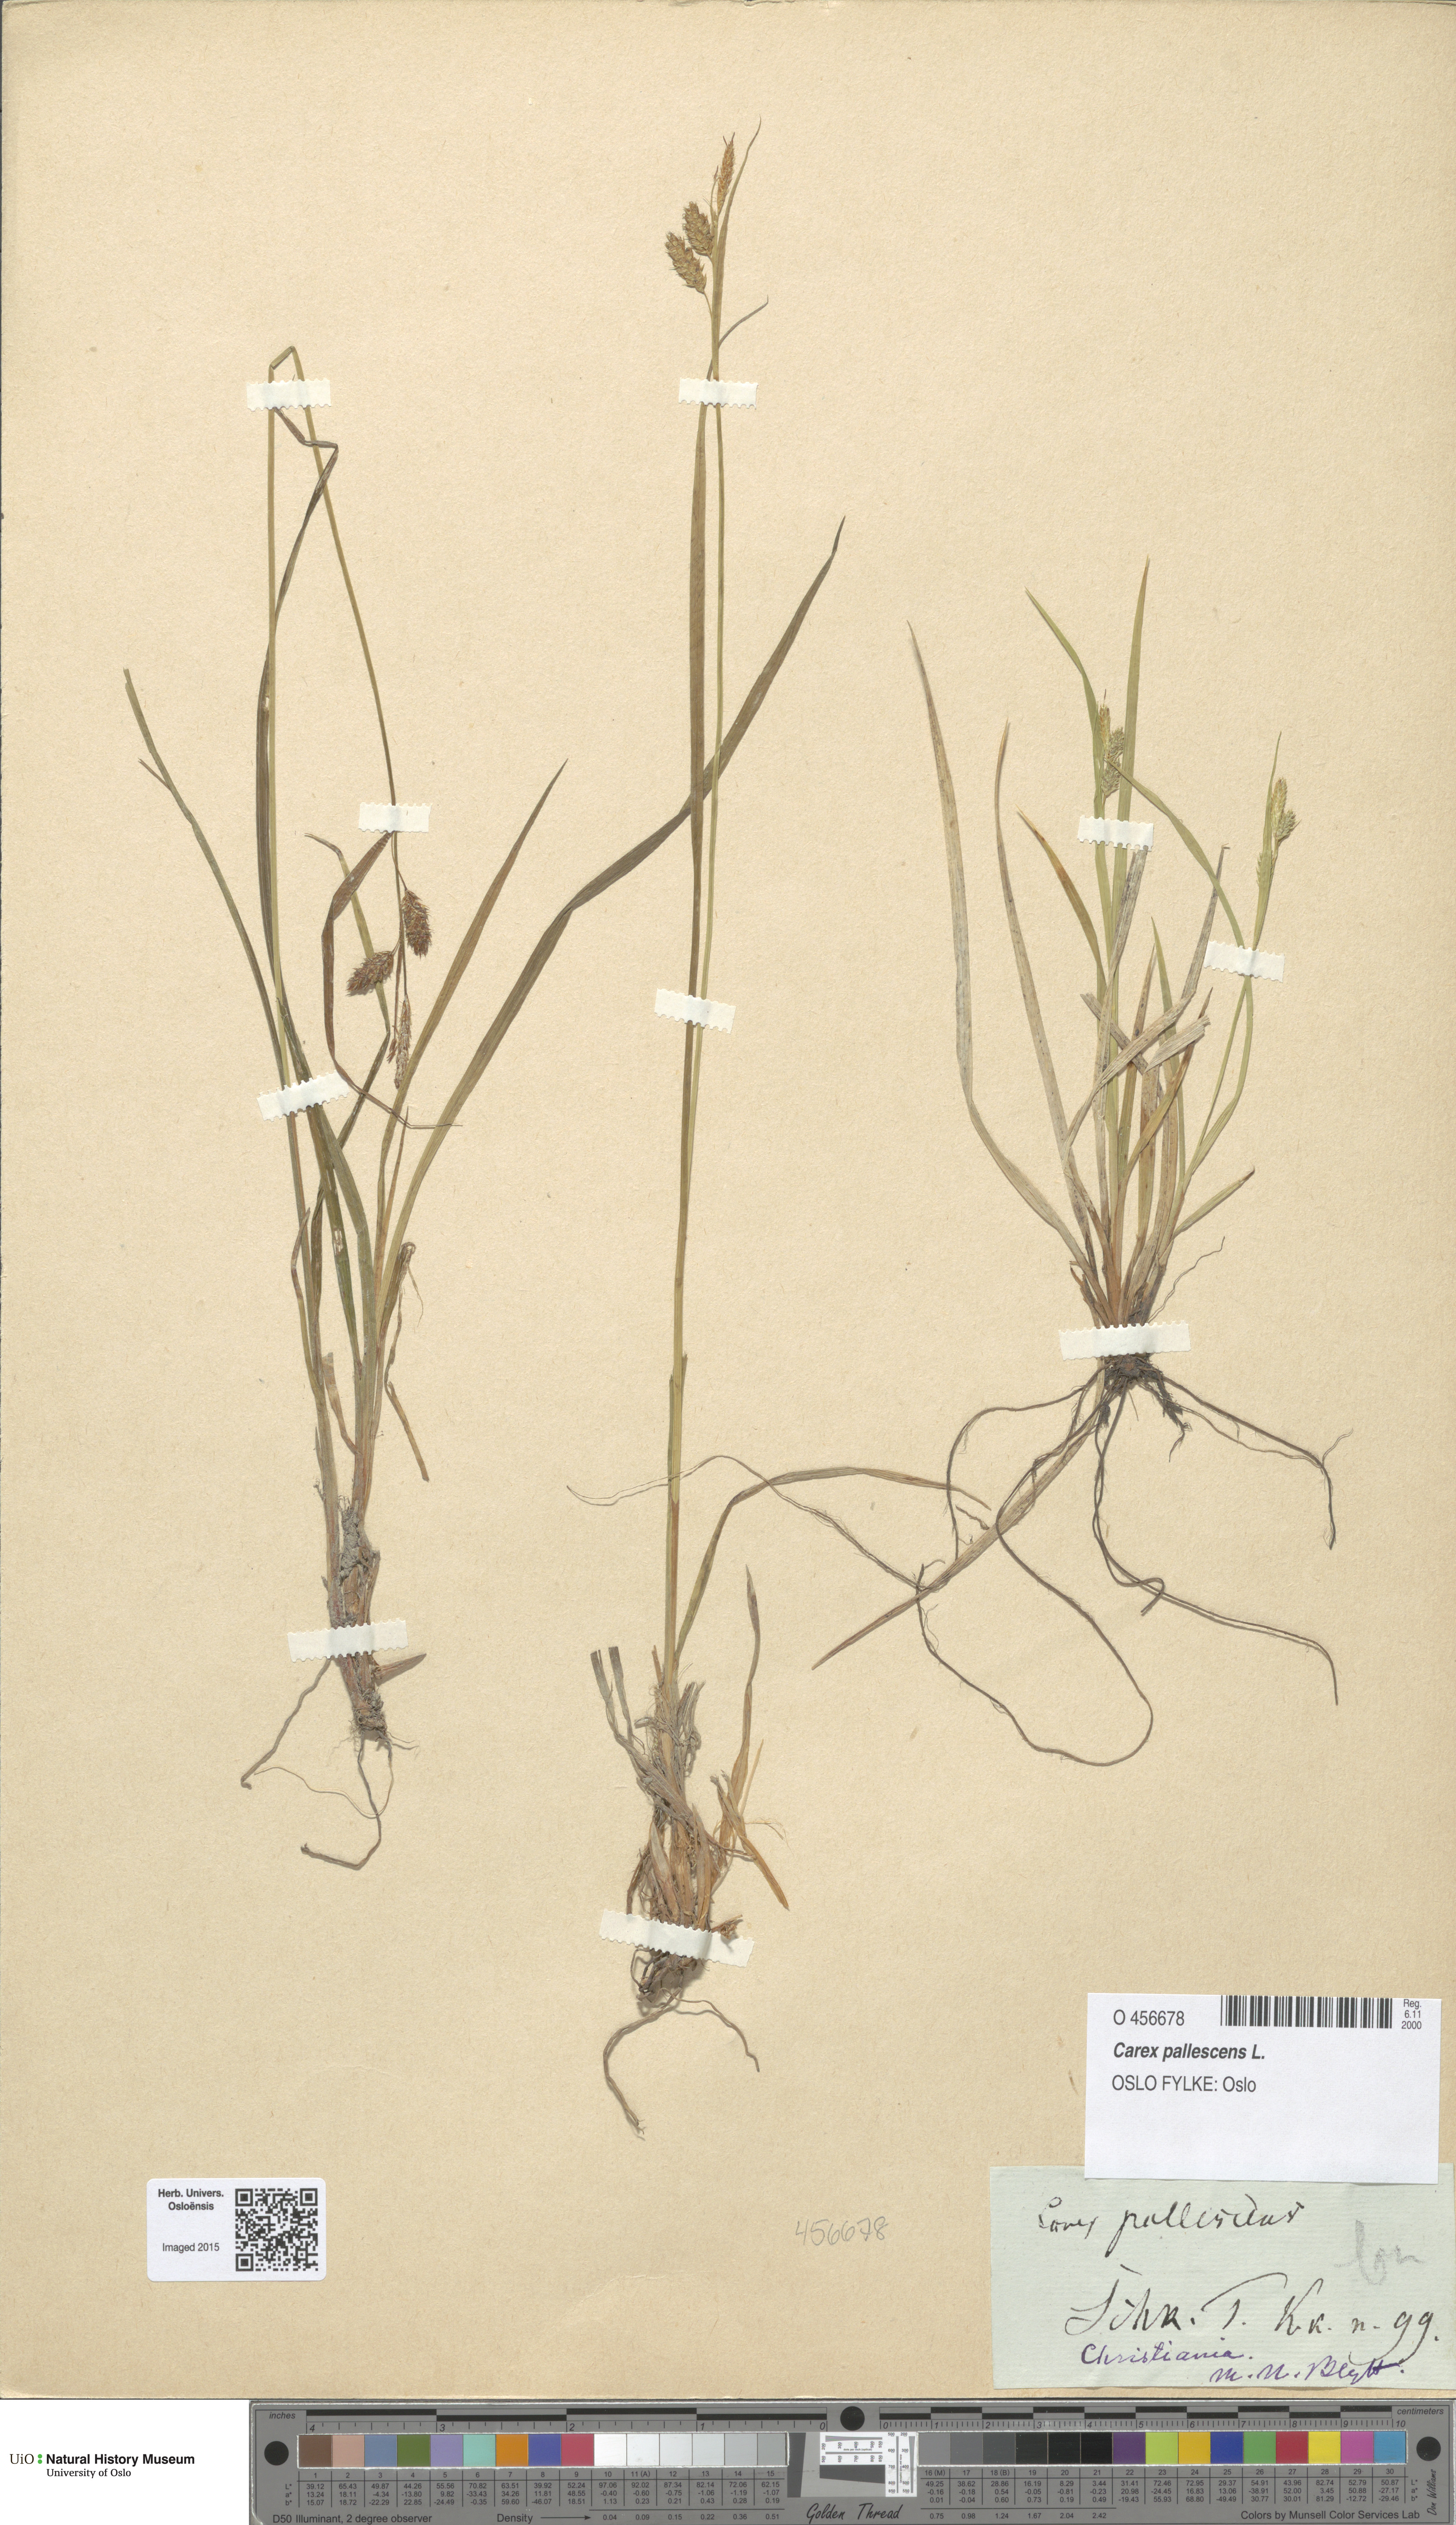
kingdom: Plantae
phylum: Tracheophyta
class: Liliopsida
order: Poales
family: Cyperaceae
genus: Carex
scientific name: Carex pallescens
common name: Pale sedge
